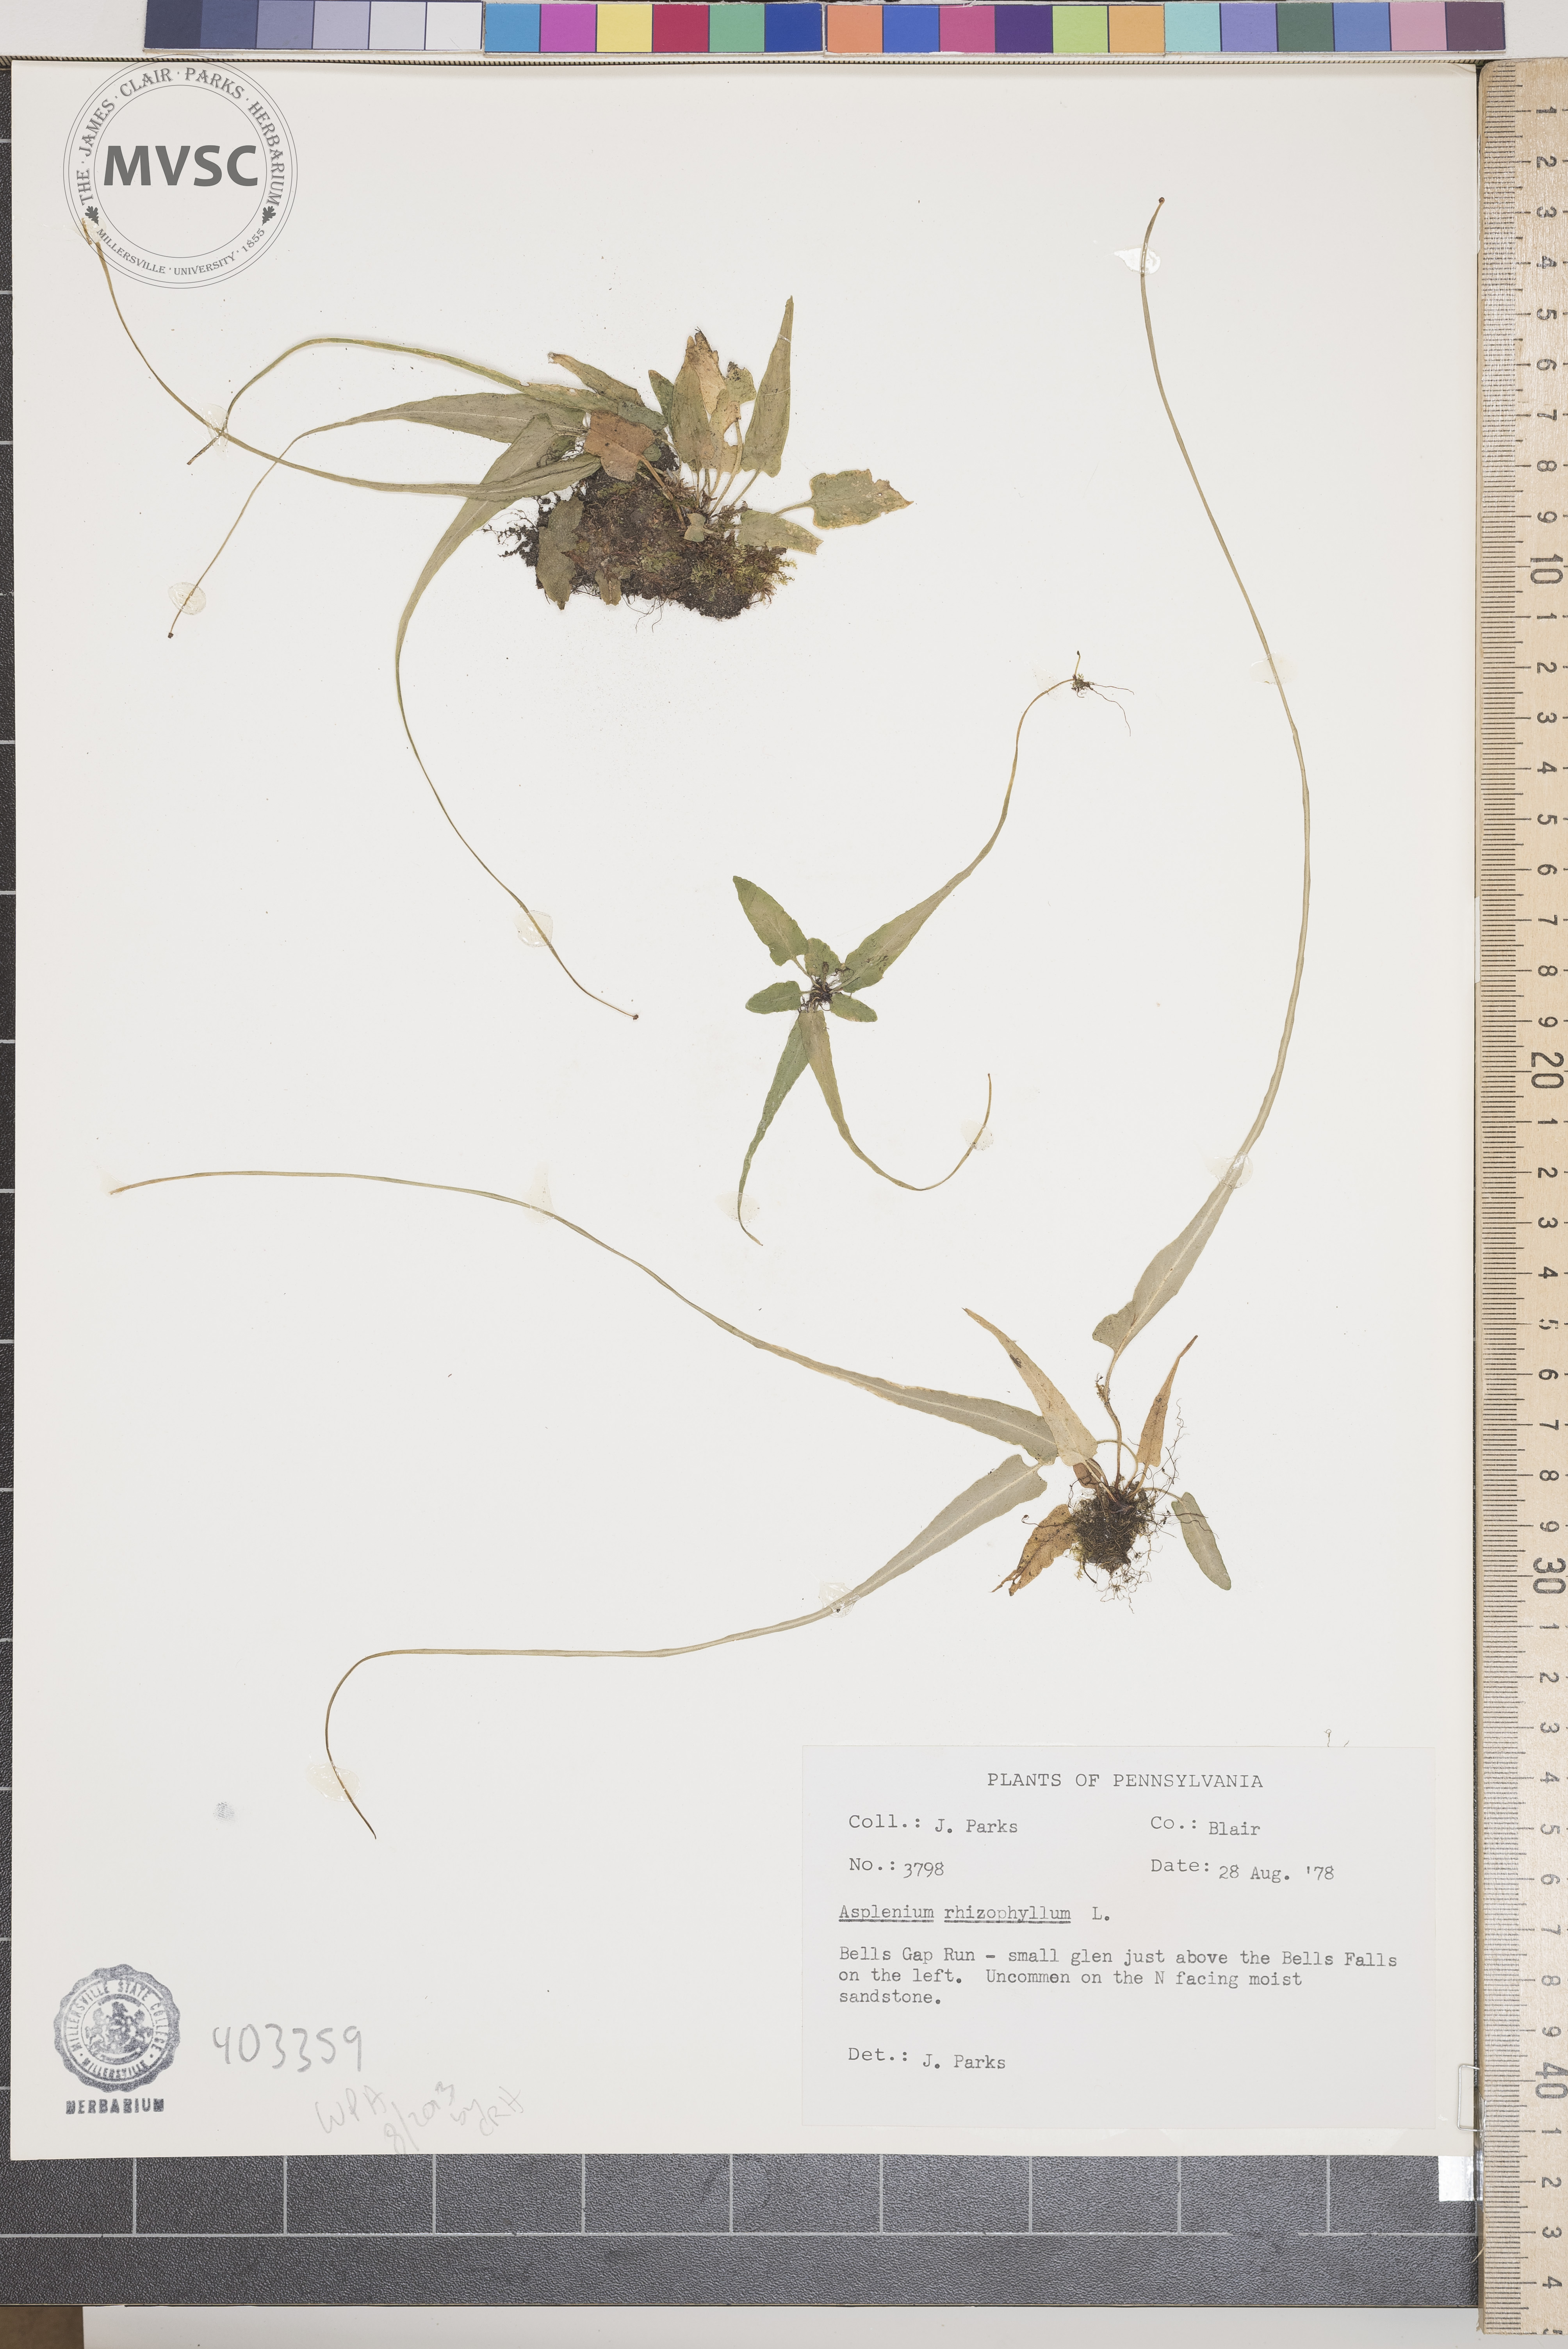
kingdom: Plantae
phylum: Tracheophyta
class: Polypodiopsida
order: Polypodiales
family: Aspleniaceae
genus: Asplenium
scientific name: Asplenium rhizophyllum
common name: Walking fern
